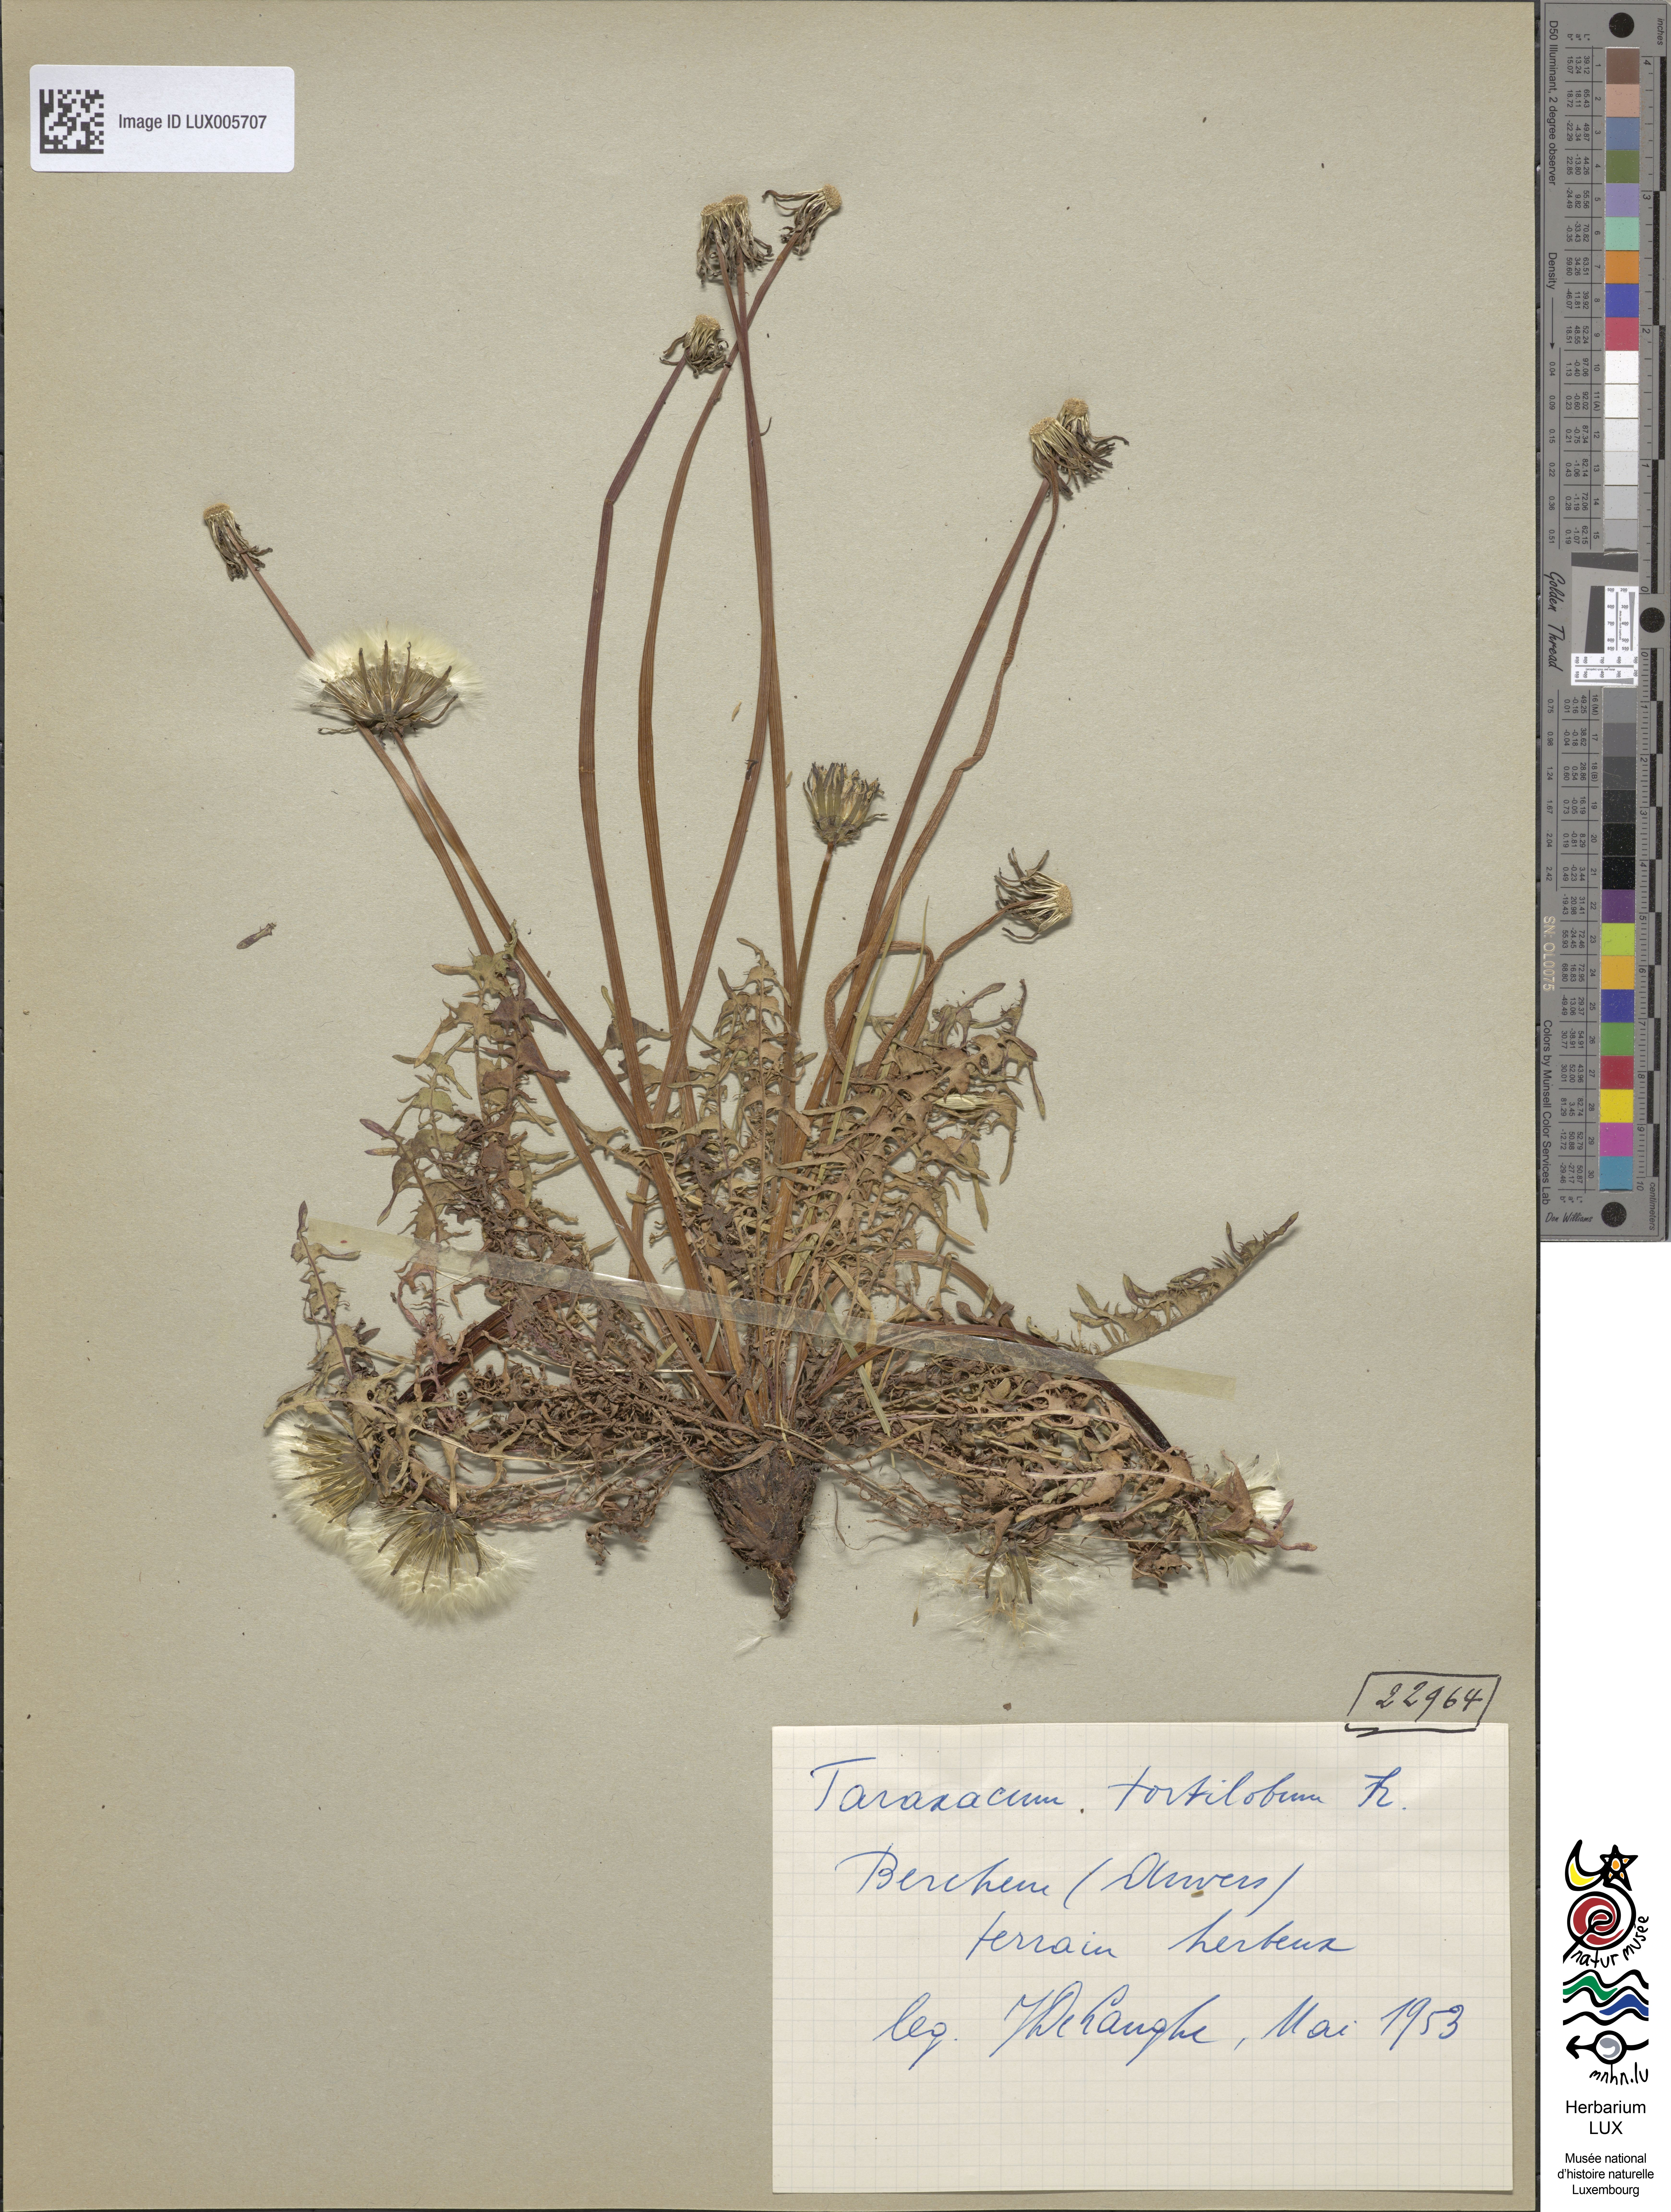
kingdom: Plantae
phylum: Tracheophyta
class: Magnoliopsida
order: Asterales
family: Asteraceae
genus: Taraxacum
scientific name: Taraxacum tortilobum
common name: Twisted-lobed dandelion
